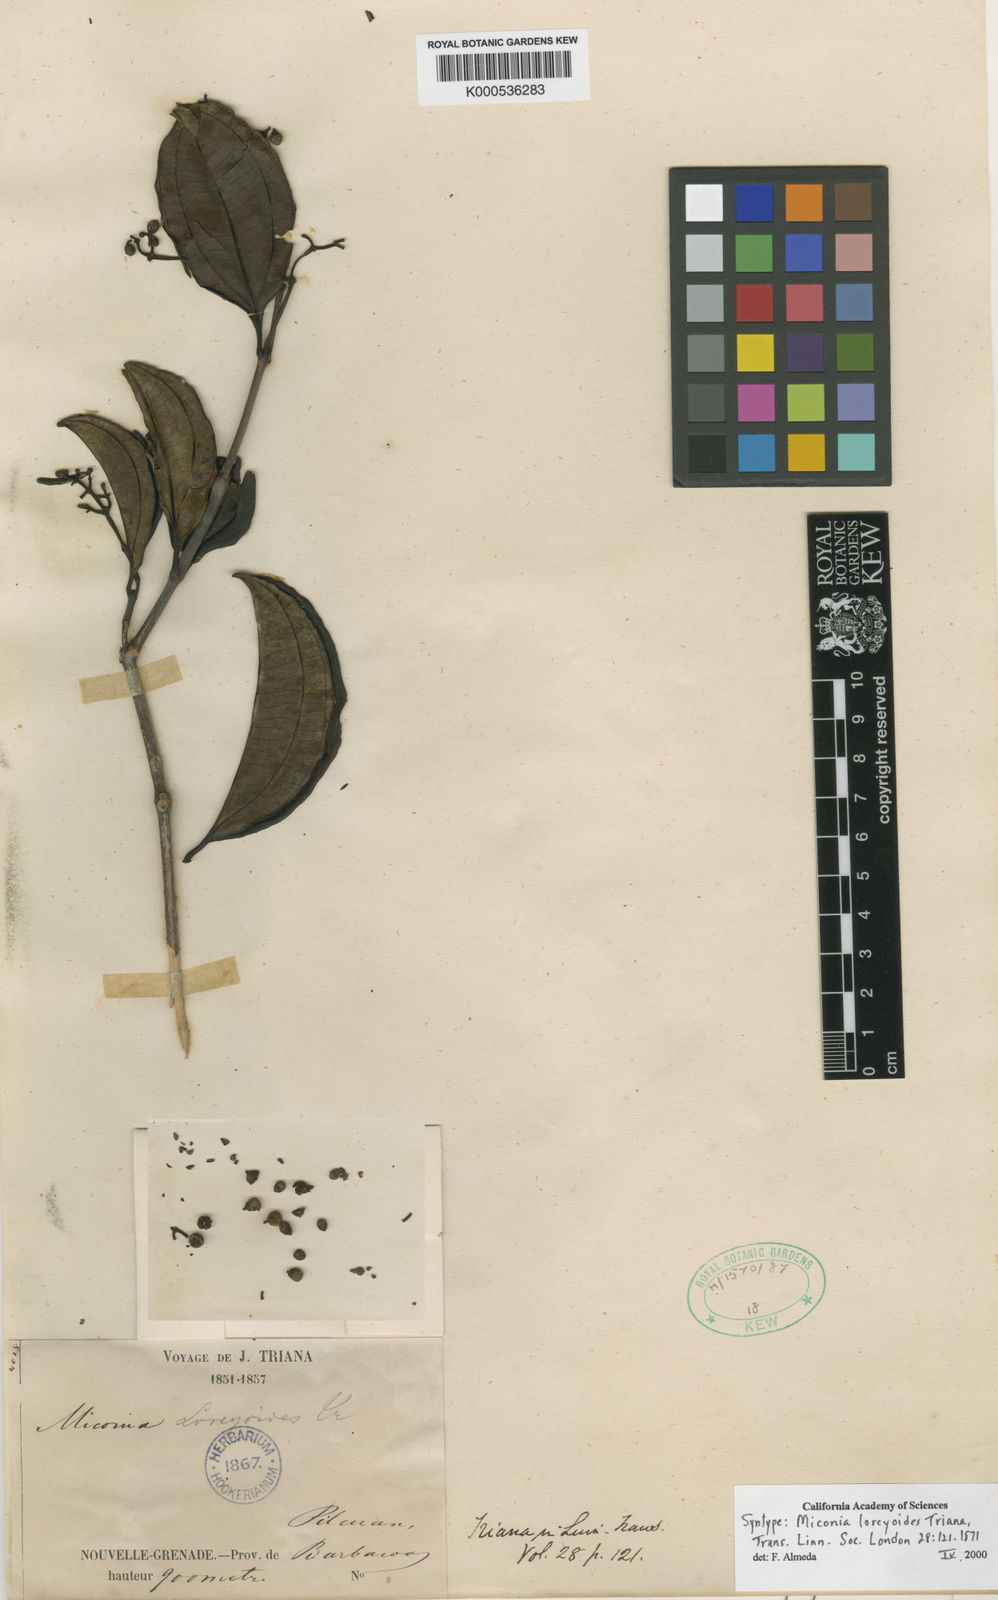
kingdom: Plantae
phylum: Tracheophyta
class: Magnoliopsida
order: Myrtales
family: Melastomataceae
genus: Miconia
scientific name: Miconia loreyoides
